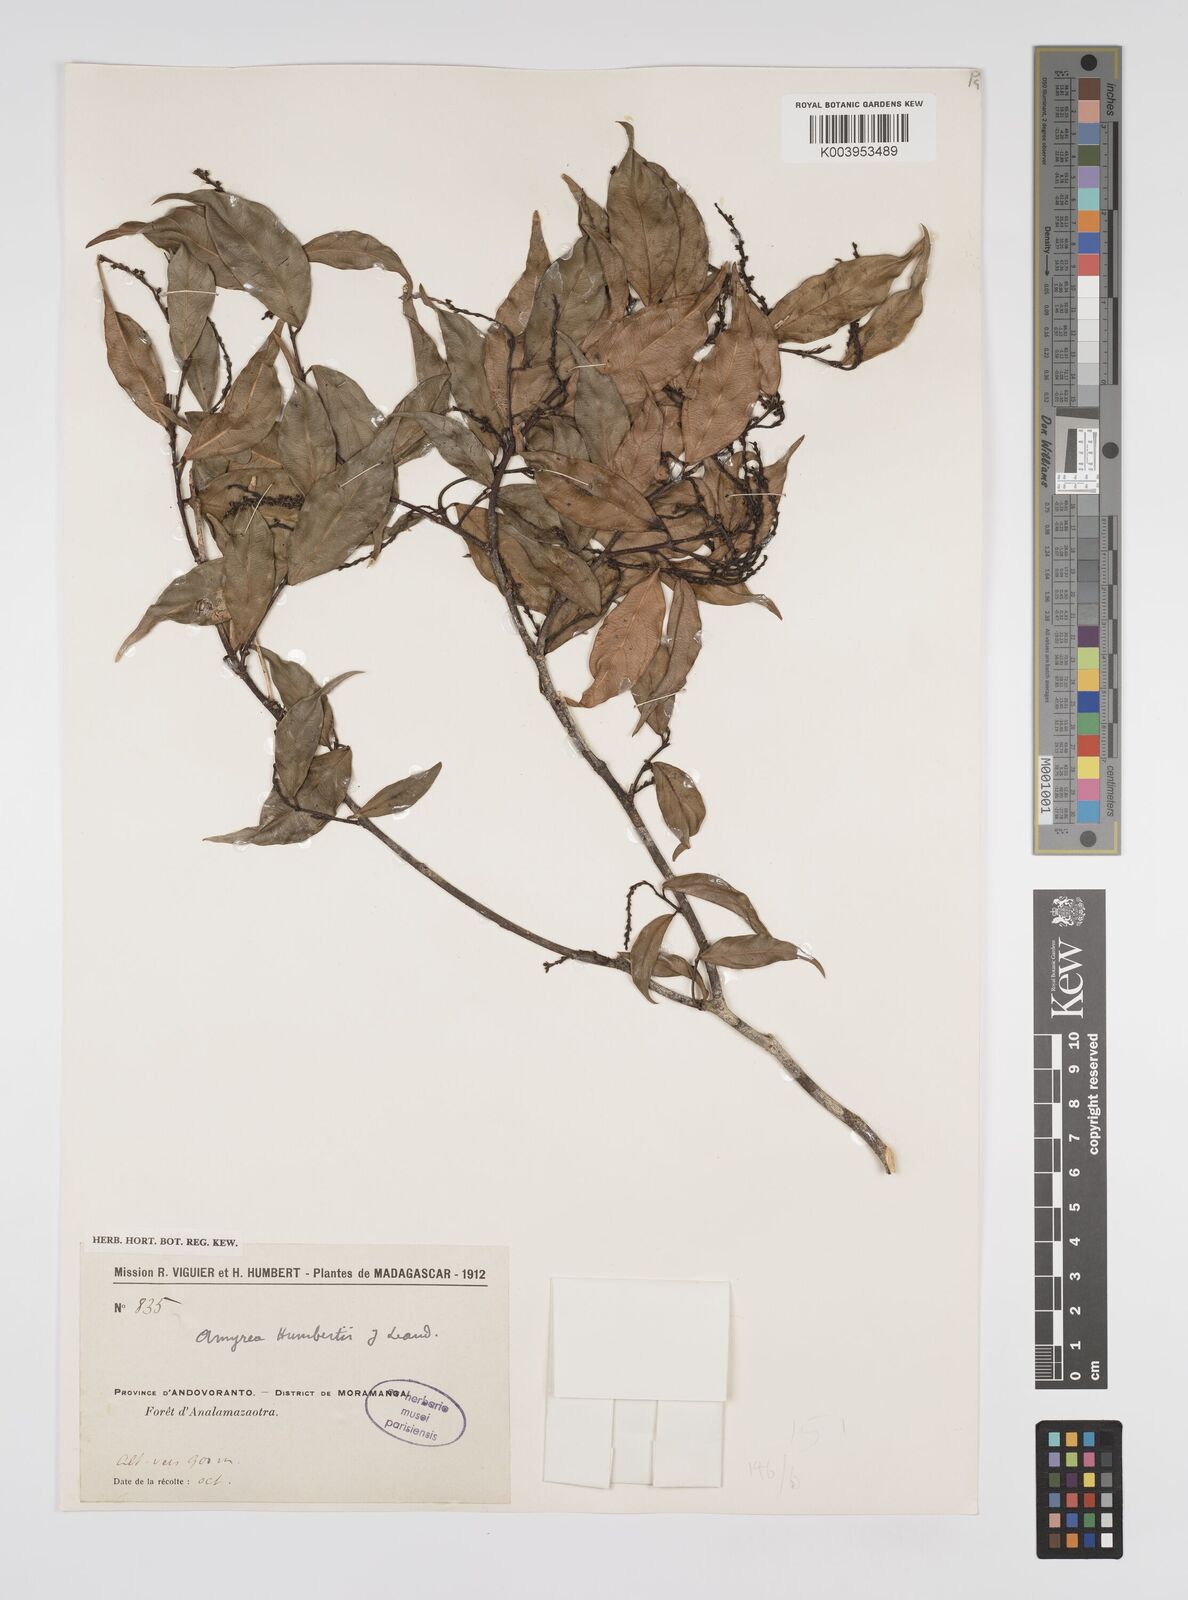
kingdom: Plantae
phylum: Tracheophyta
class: Magnoliopsida
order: Malpighiales
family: Euphorbiaceae
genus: Amyrea
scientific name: Amyrea humbertii
